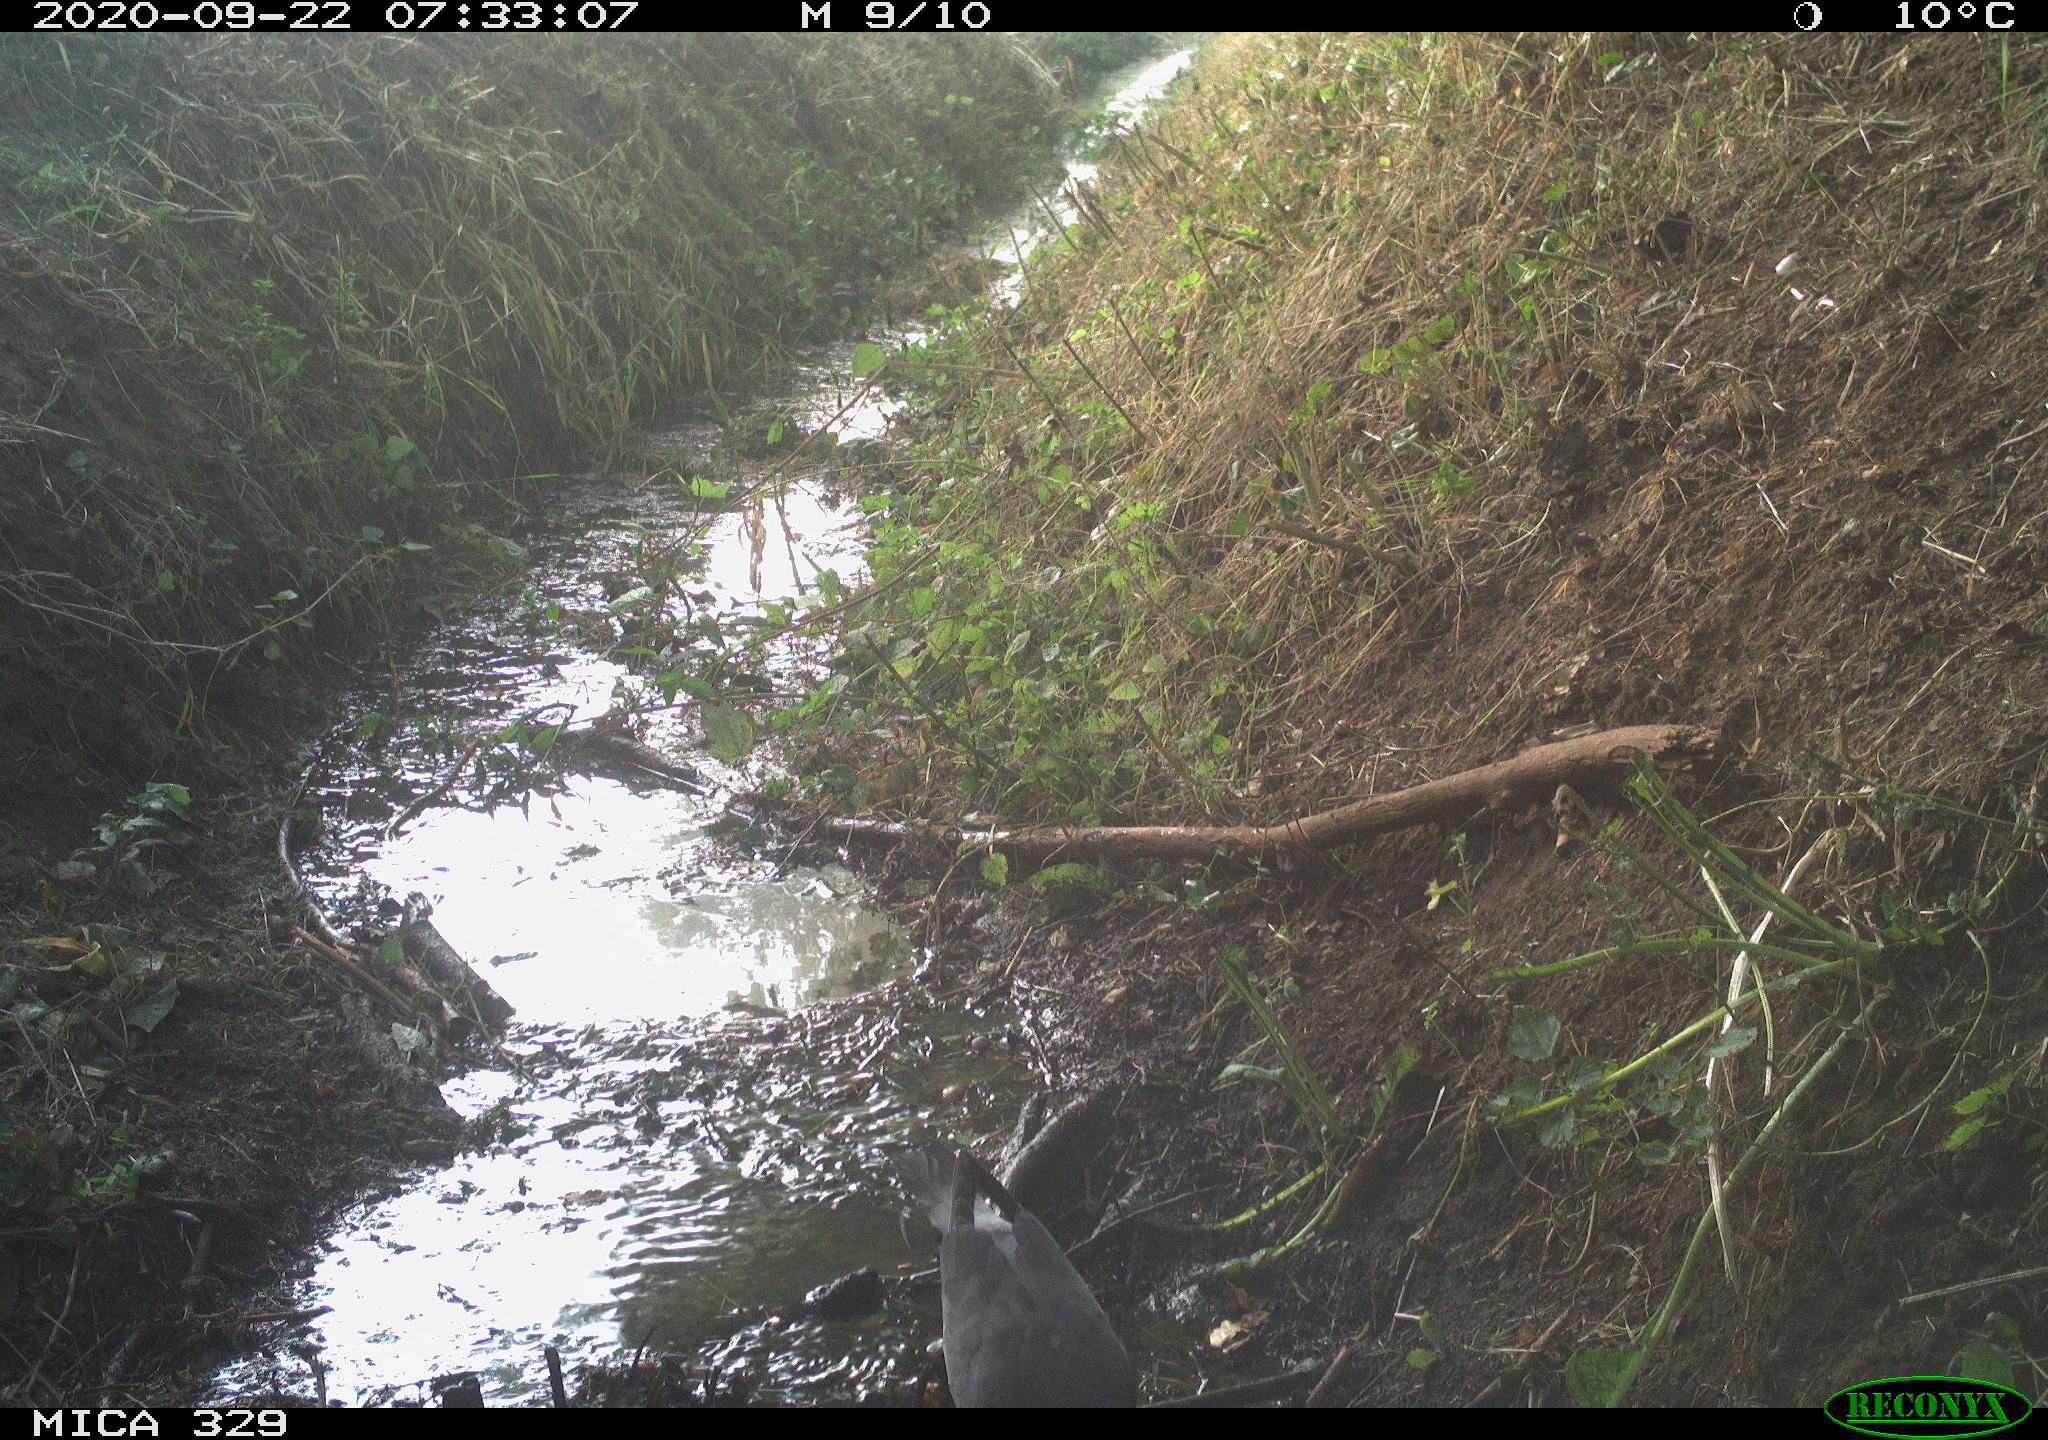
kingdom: Animalia
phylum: Chordata
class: Aves
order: Columbiformes
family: Columbidae
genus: Columba
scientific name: Columba palumbus
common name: Common wood pigeon
